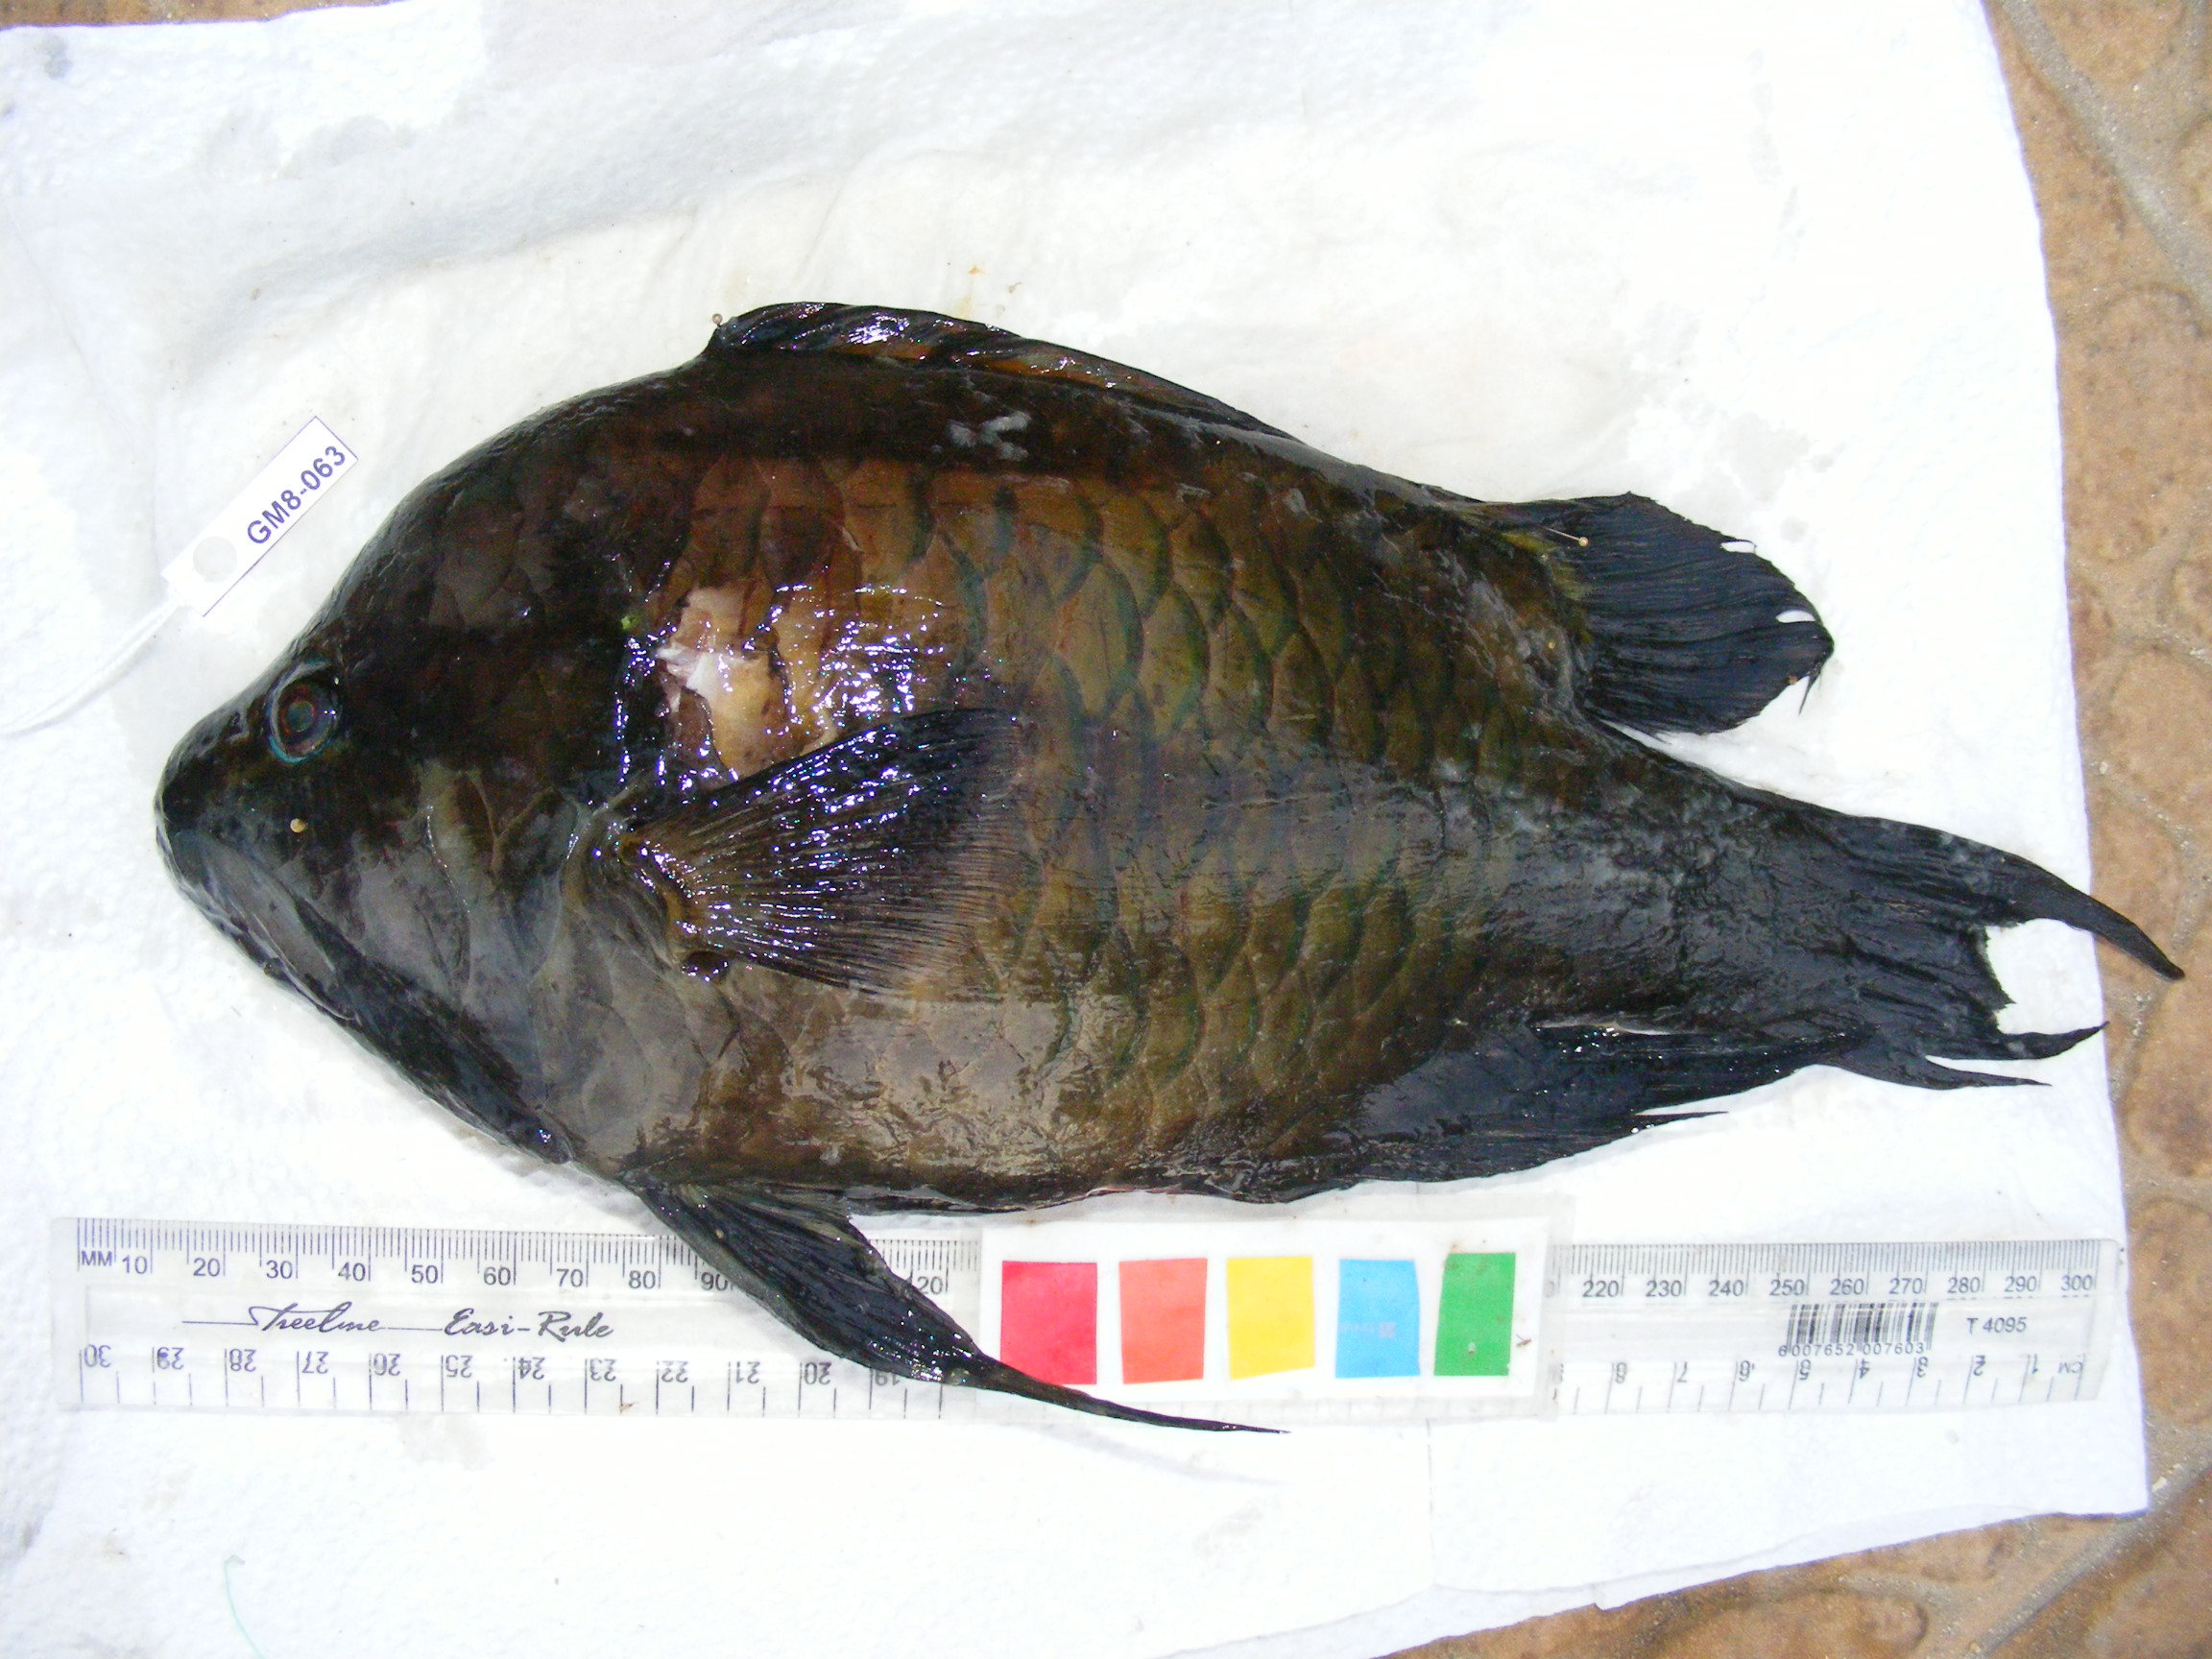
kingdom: Animalia
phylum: Chordata
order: Perciformes
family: Labridae
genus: Epibulus
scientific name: Epibulus insidiator
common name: Slingjaw wrasse
